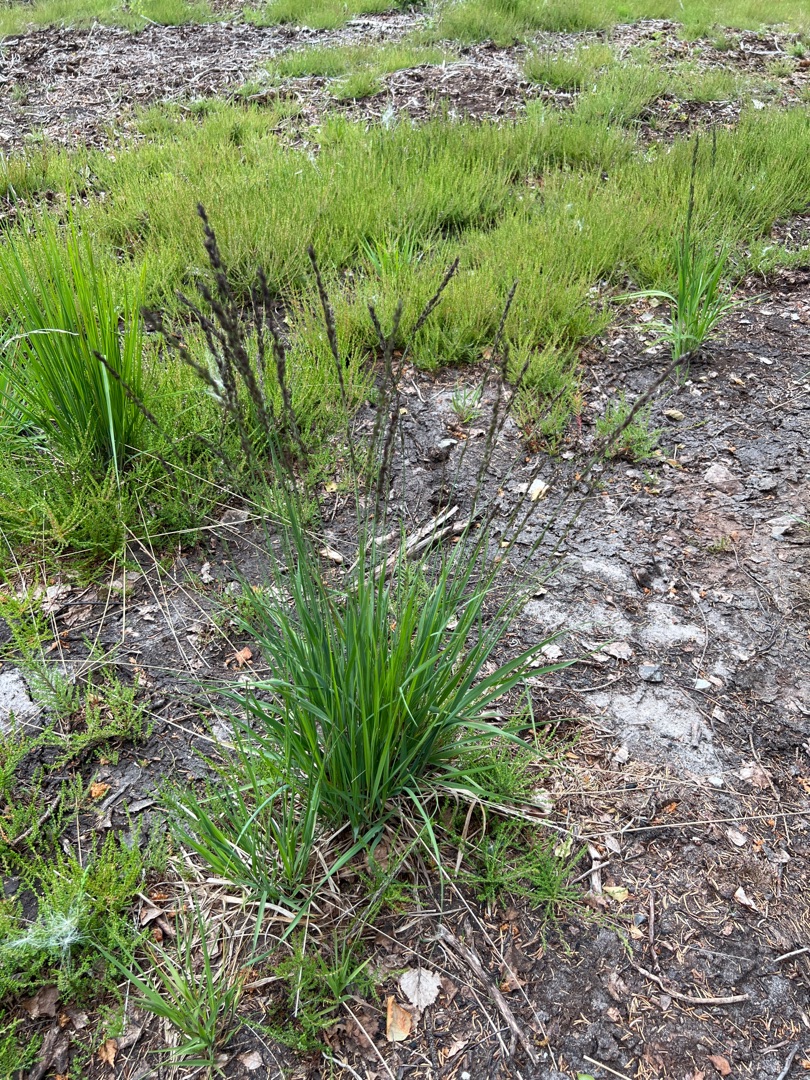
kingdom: Plantae
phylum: Tracheophyta
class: Liliopsida
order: Poales
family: Poaceae
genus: Molinia
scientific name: Molinia caerulea
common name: Blåtop
